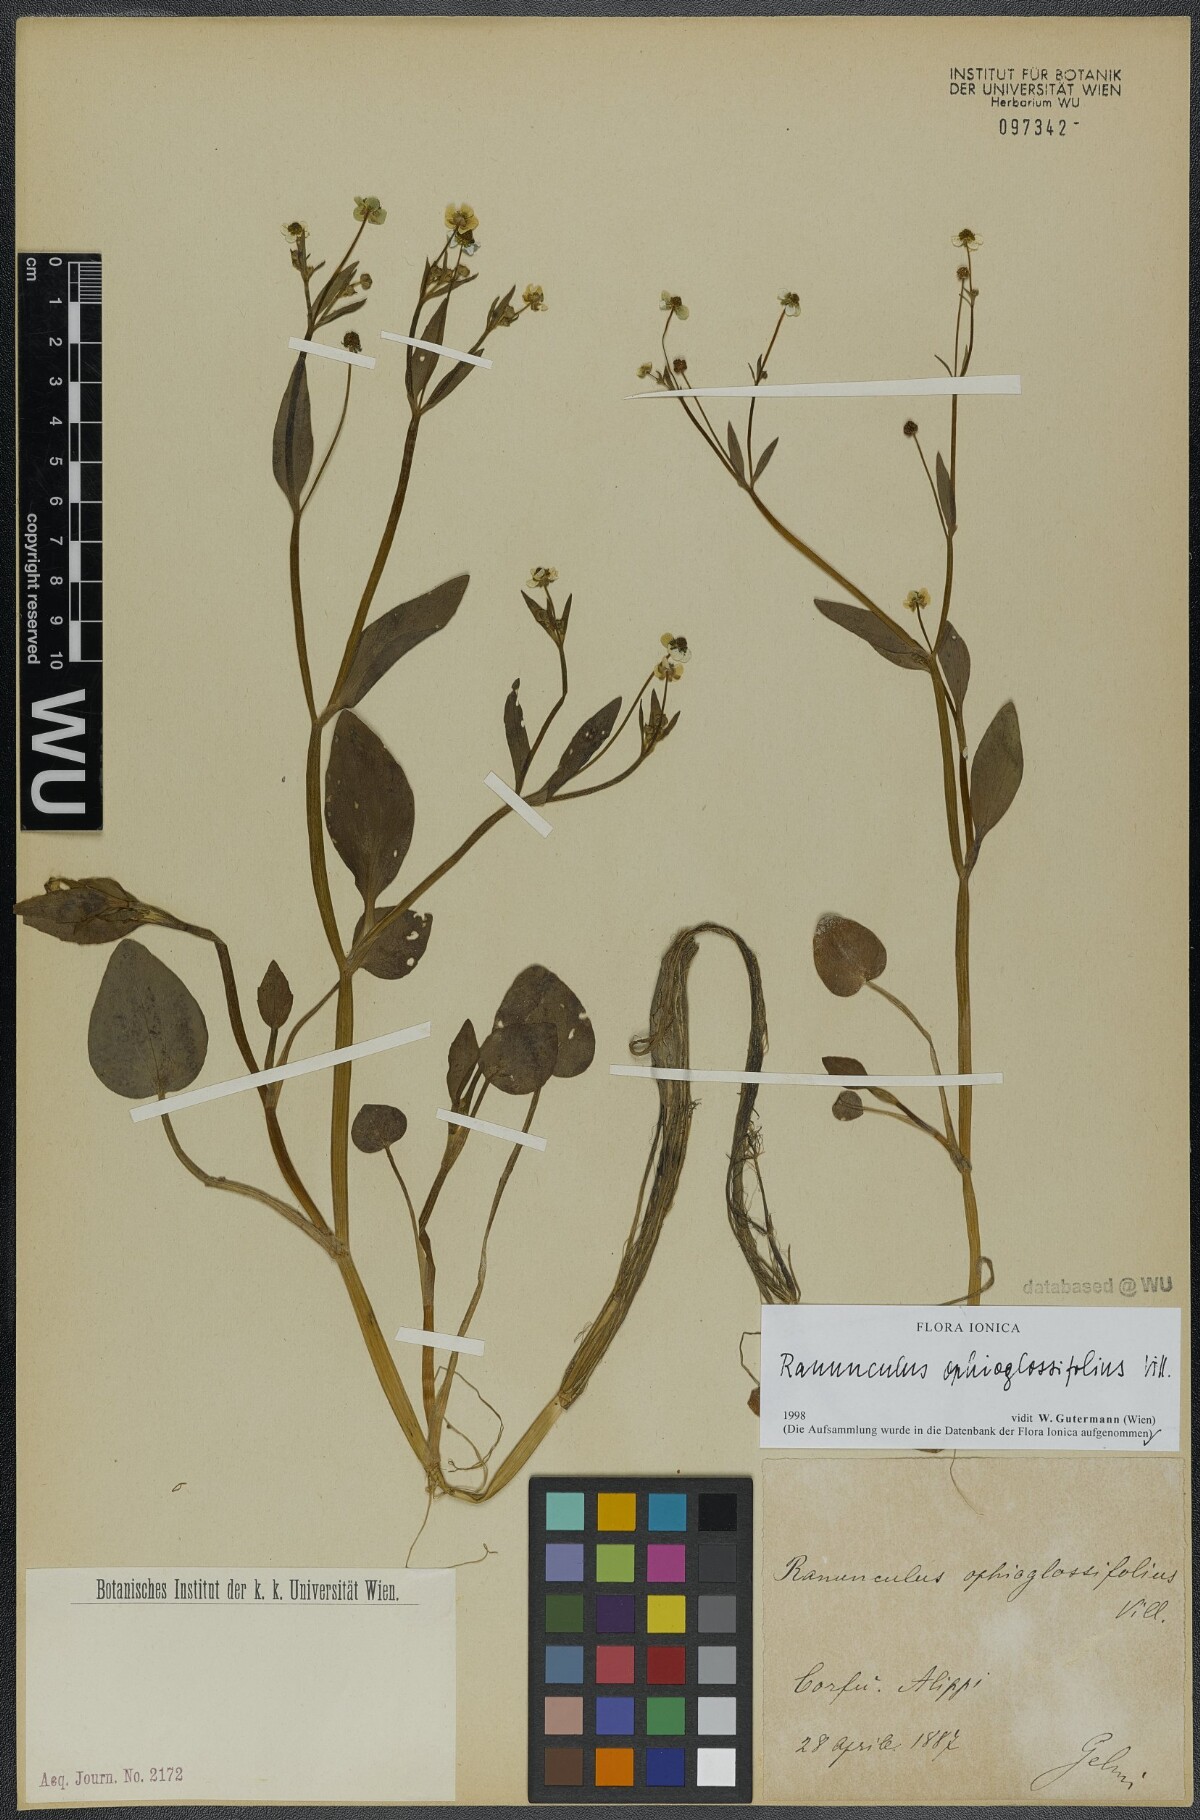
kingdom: Plantae
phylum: Tracheophyta
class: Magnoliopsida
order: Ranunculales
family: Ranunculaceae
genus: Ranunculus
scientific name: Ranunculus ophioglossifolius
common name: Adder's-tongue spearwort
